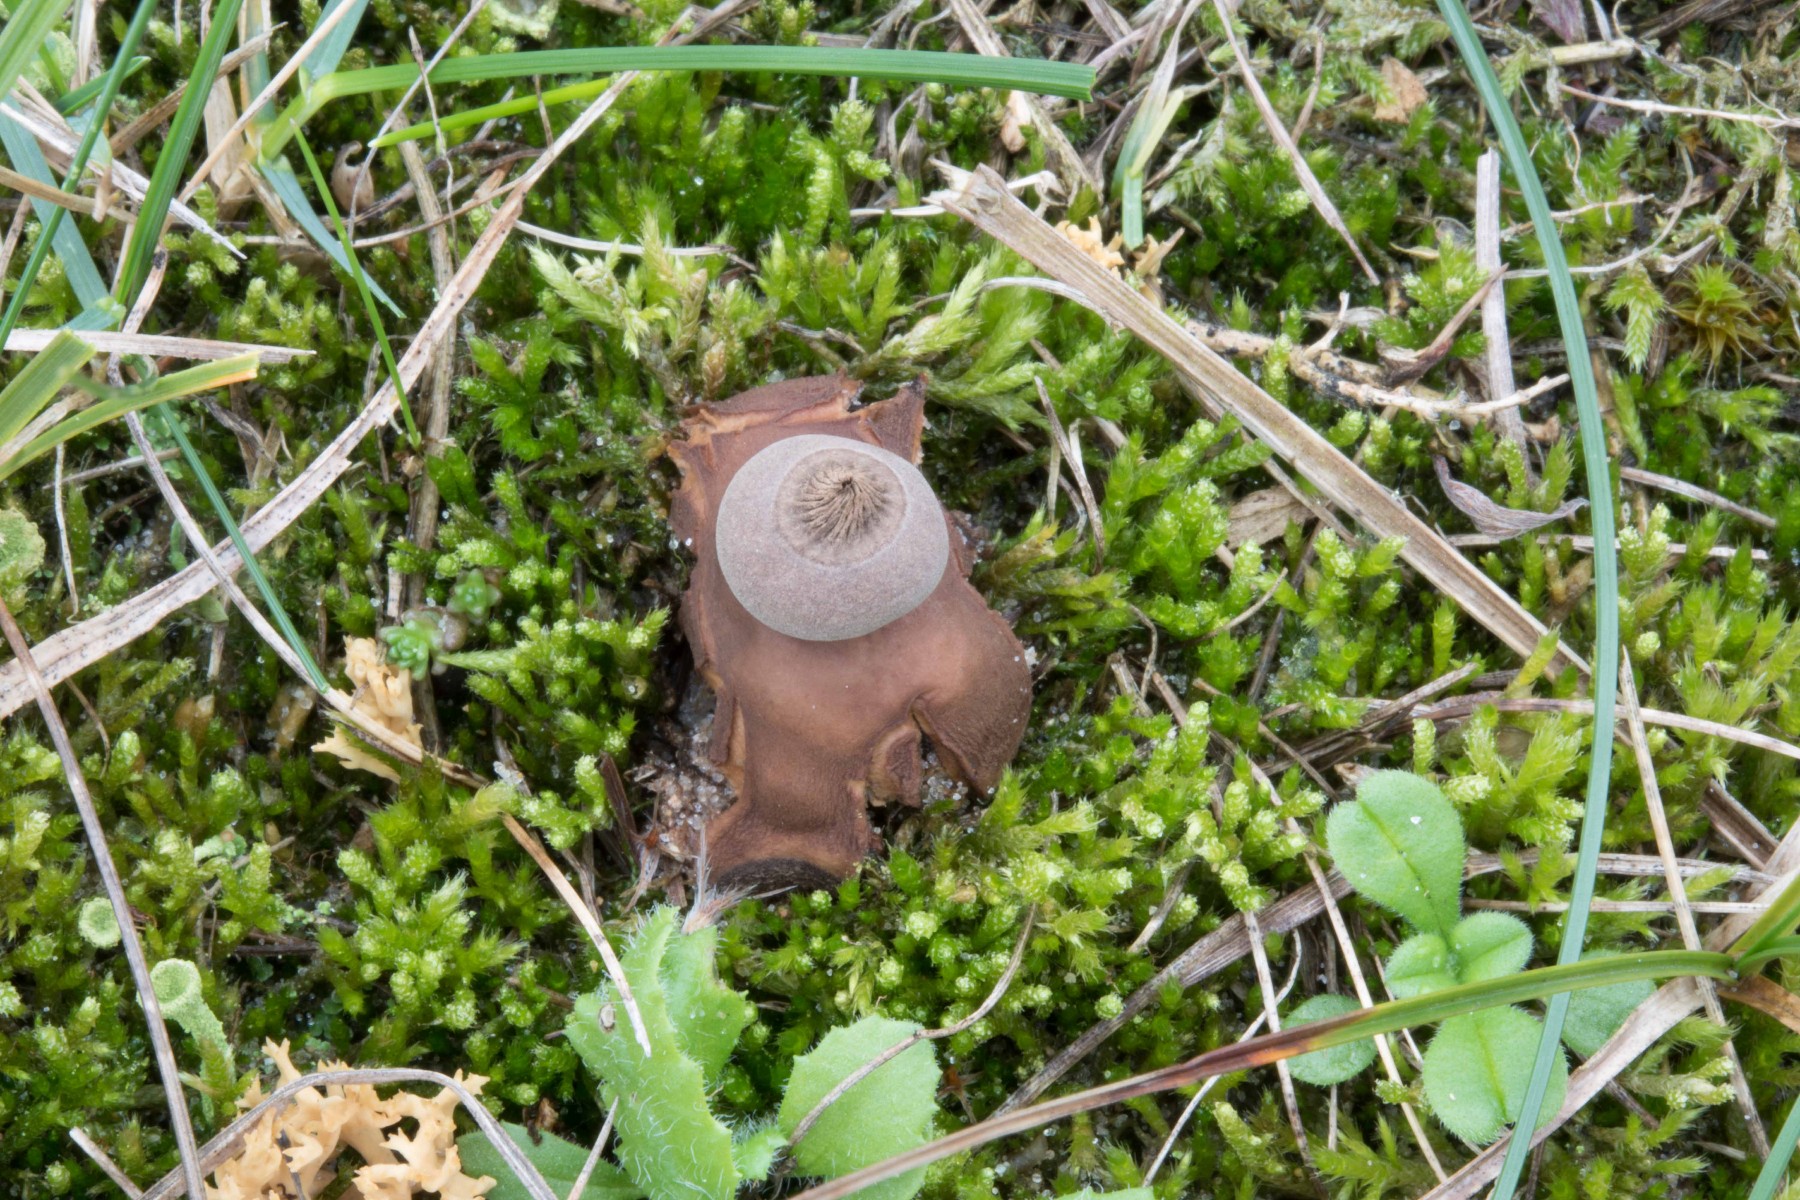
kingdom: Fungi
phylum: Basidiomycota
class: Agaricomycetes
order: Geastrales
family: Geastraceae
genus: Geastrum
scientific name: Geastrum striatum
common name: dværg-stjernebold
